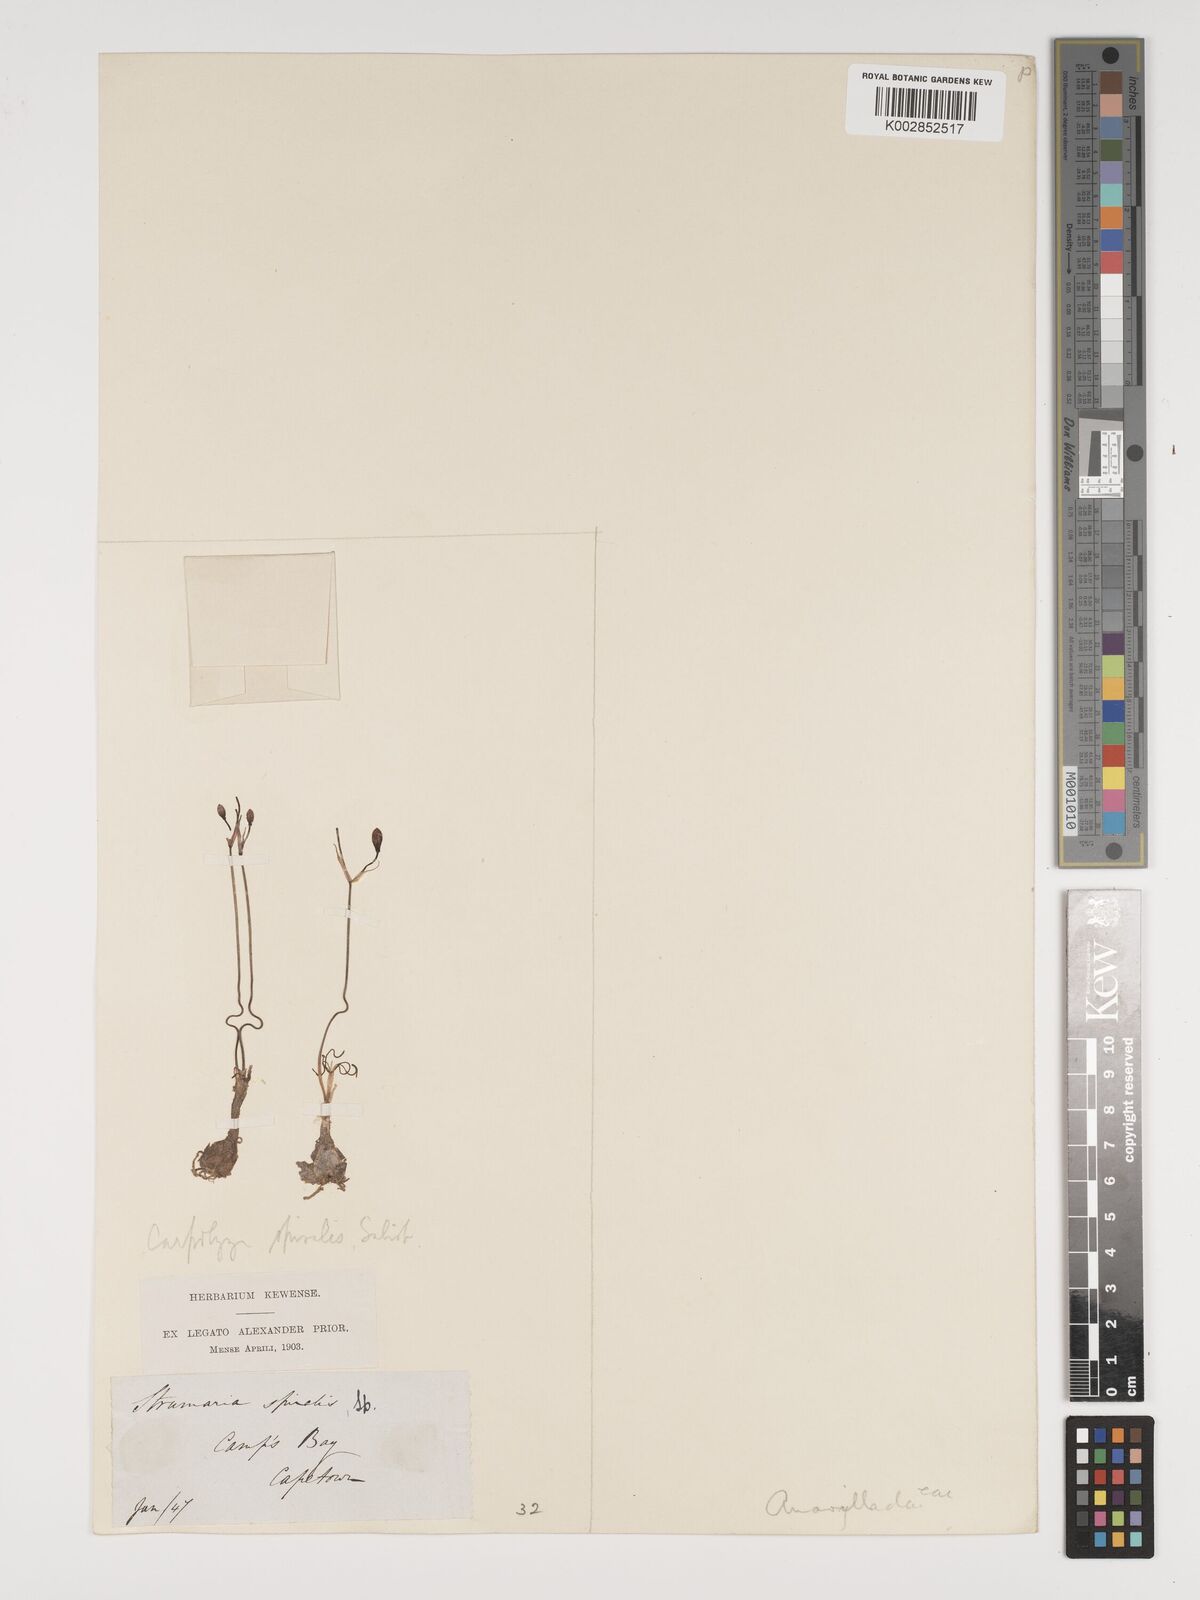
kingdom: Plantae
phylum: Tracheophyta
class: Liliopsida
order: Asparagales
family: Amaryllidaceae
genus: Strumaria
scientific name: Strumaria spiralis
